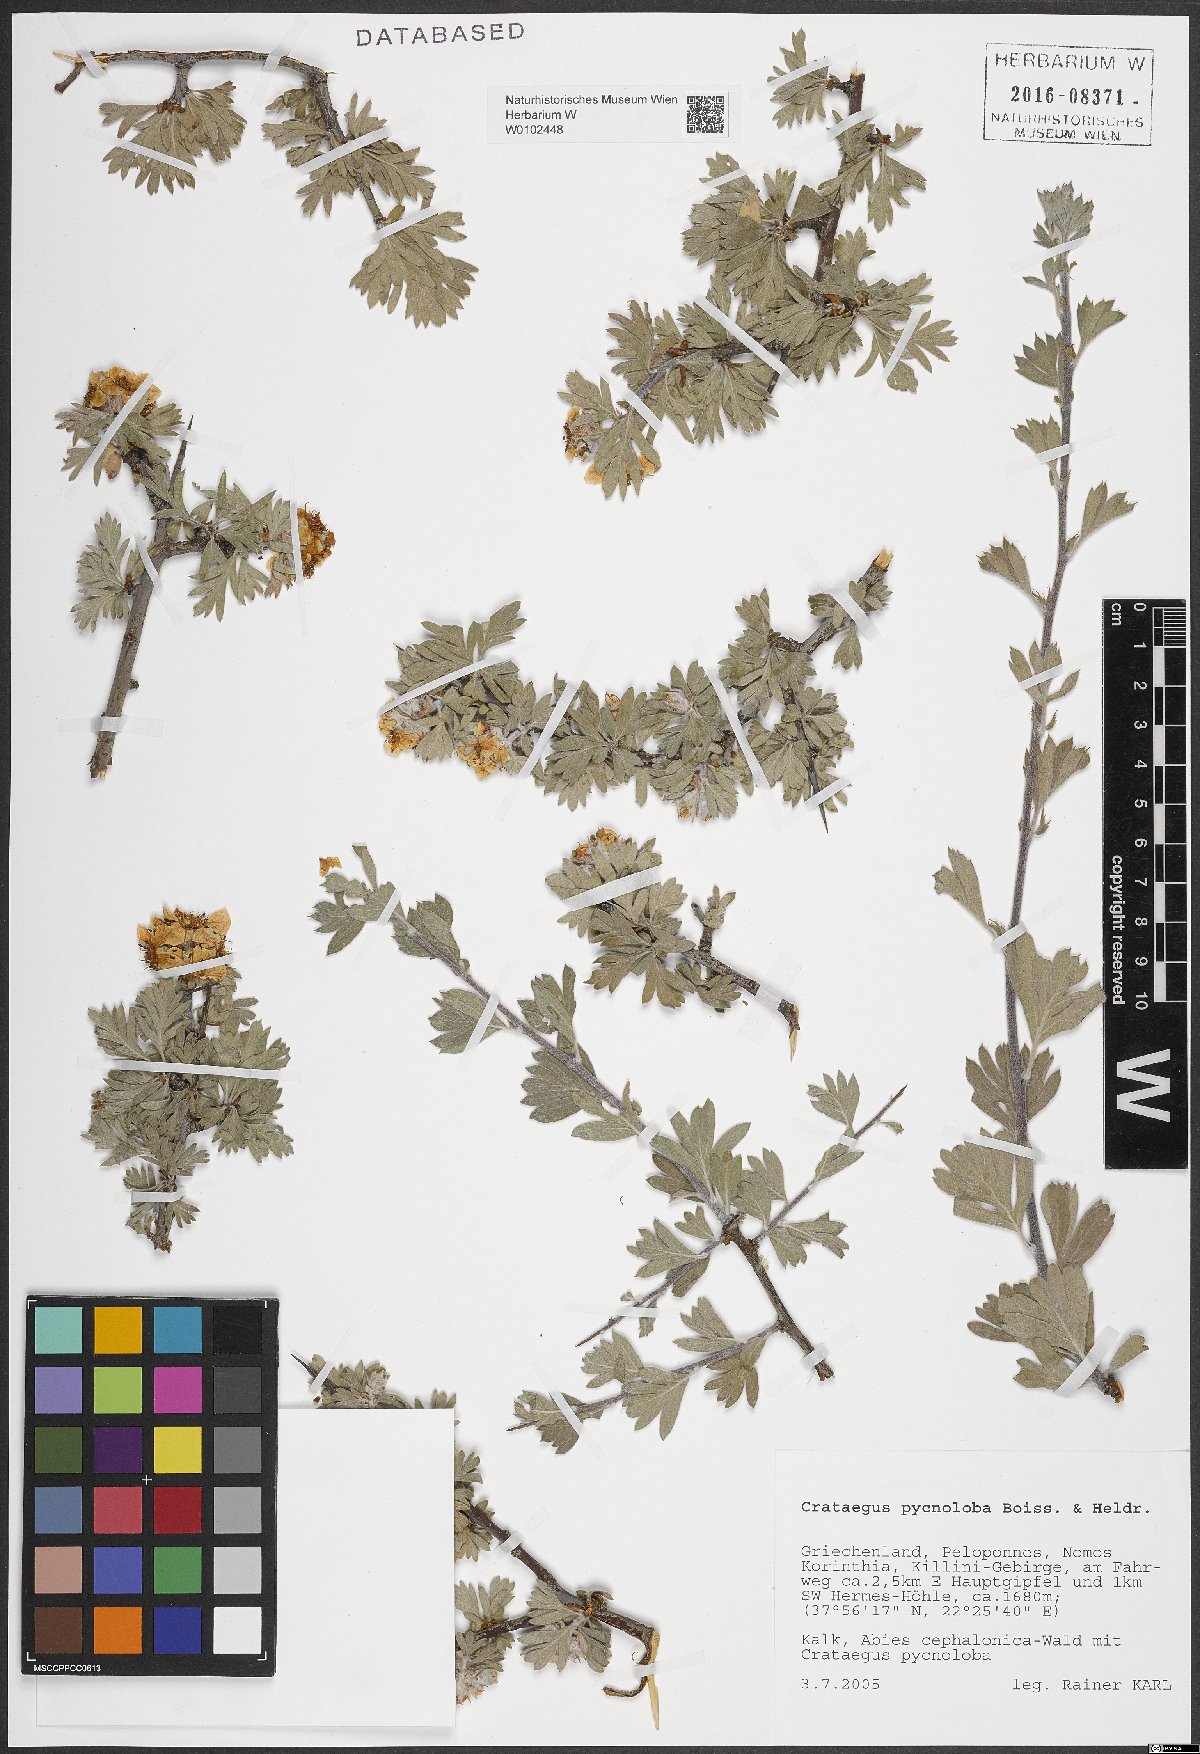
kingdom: Plantae
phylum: Tracheophyta
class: Magnoliopsida
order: Rosales
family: Rosaceae
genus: Crataegus
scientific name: Crataegus pycnoloba
